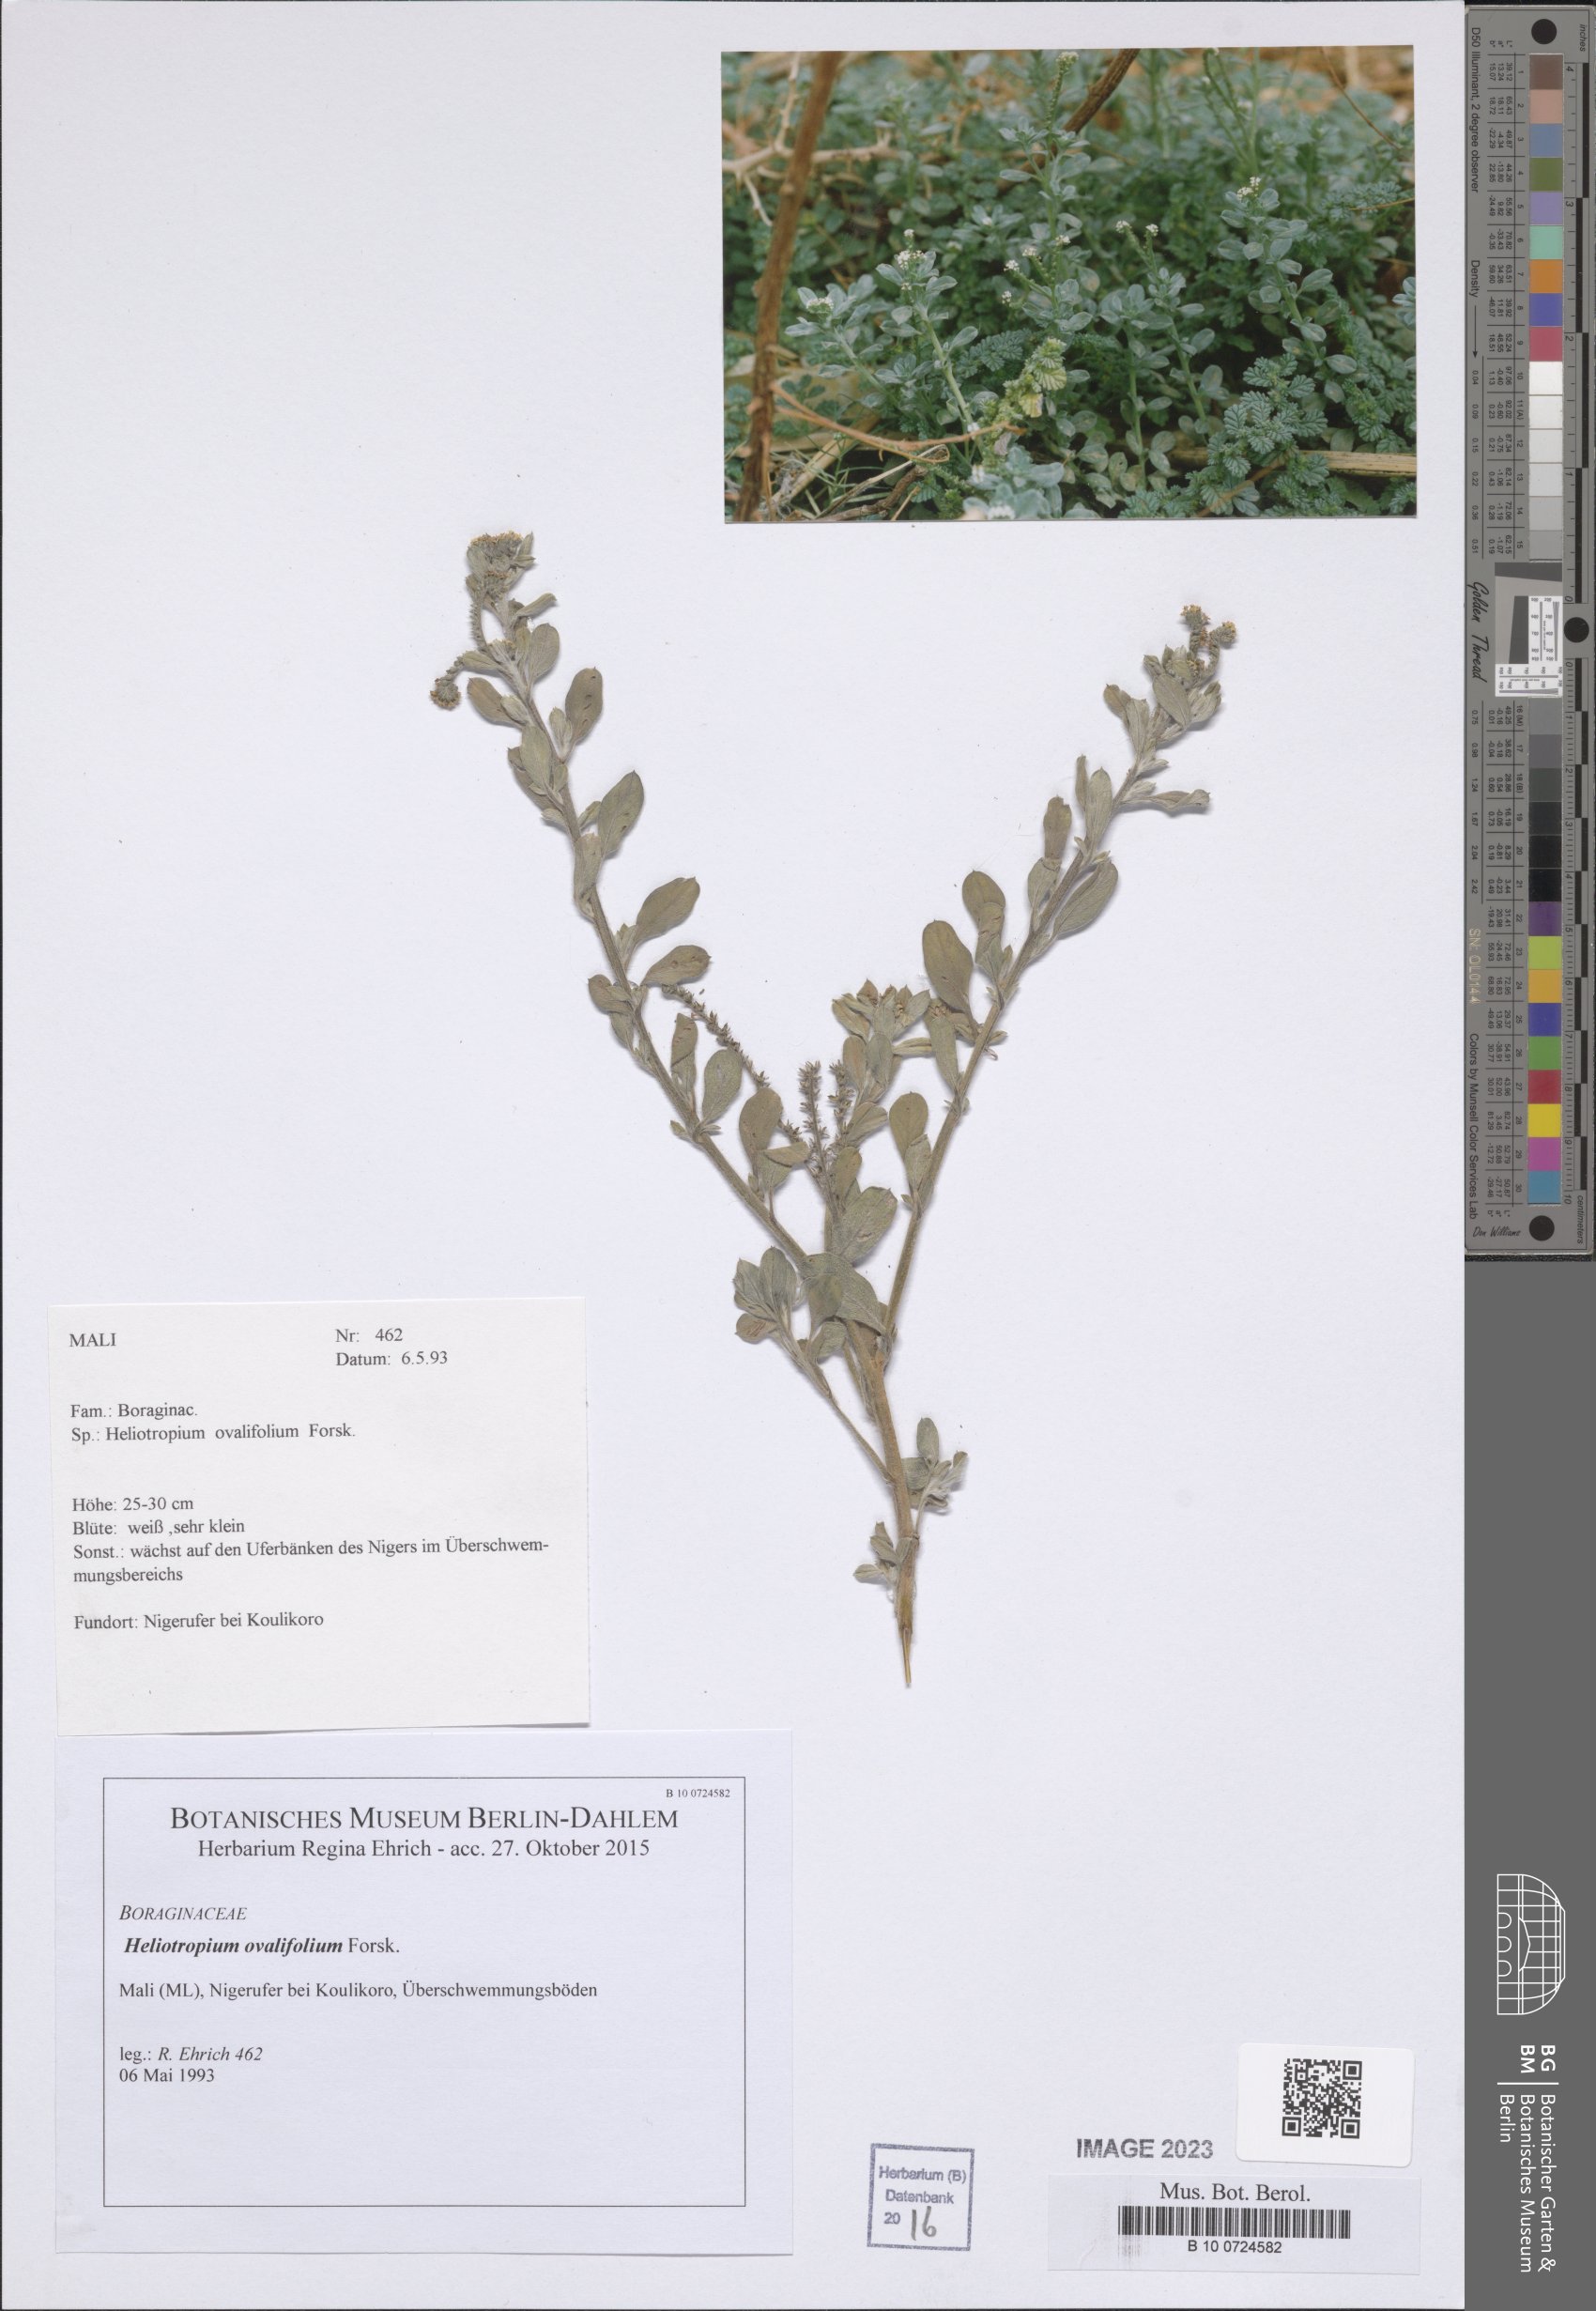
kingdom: Plantae
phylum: Tracheophyta
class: Magnoliopsida
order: Boraginales
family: Heliotropiaceae
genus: Euploca
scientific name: Euploca ovalifolia
